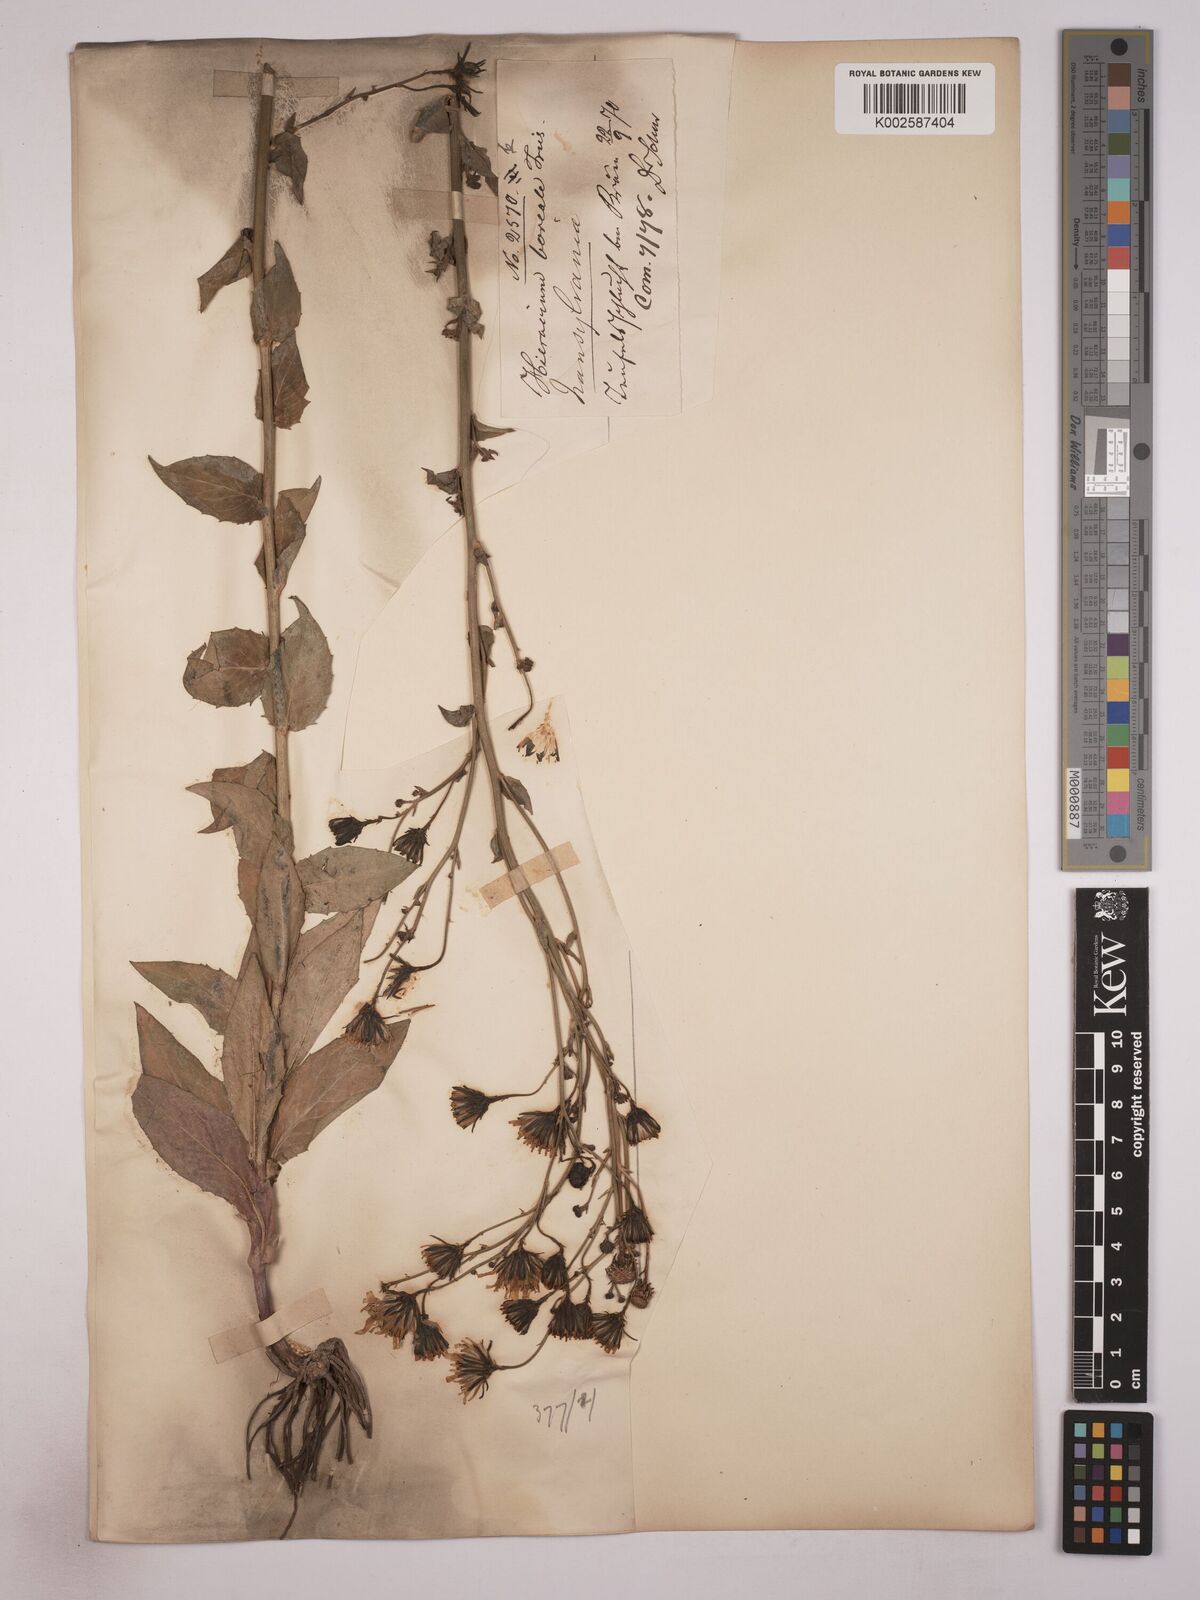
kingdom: Plantae
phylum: Tracheophyta
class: Magnoliopsida
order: Asterales
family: Asteraceae
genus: Hieracium
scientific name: Hieracium subaudum
